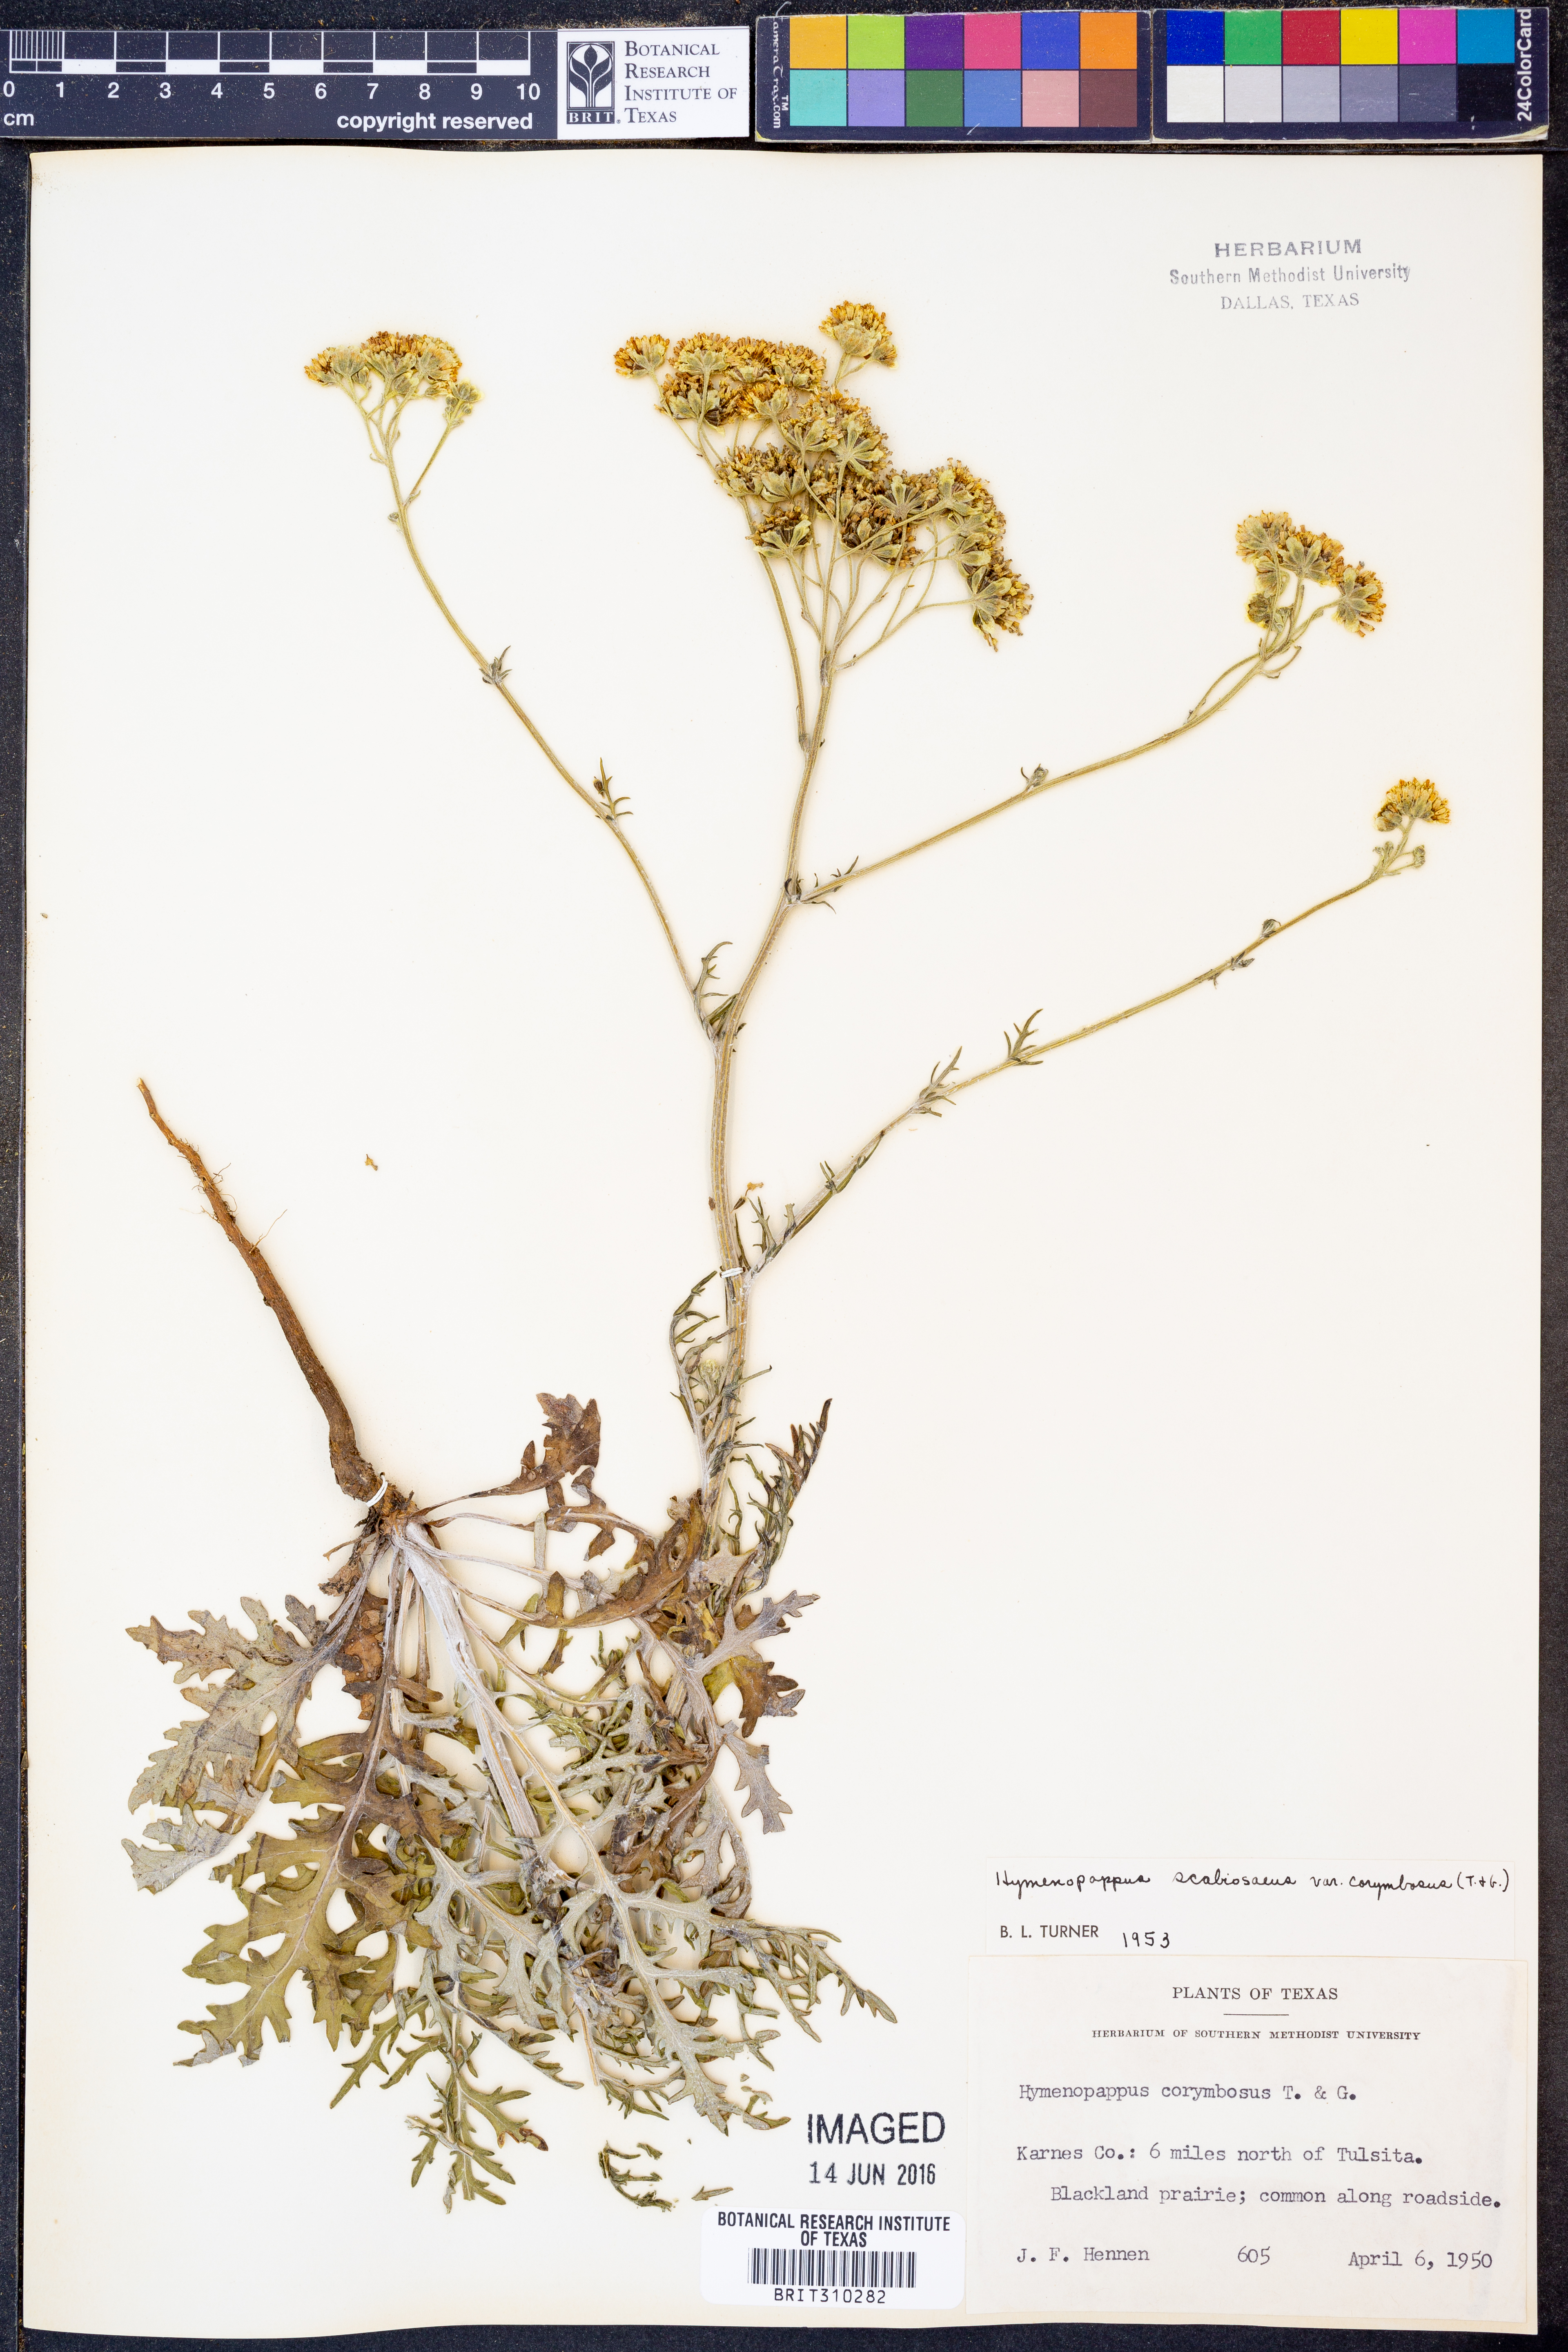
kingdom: Plantae
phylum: Tracheophyta
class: Magnoliopsida
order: Asterales
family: Asteraceae
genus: Hymenopappus
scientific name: Hymenopappus scabiosaeus
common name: Carolina woollywhite
